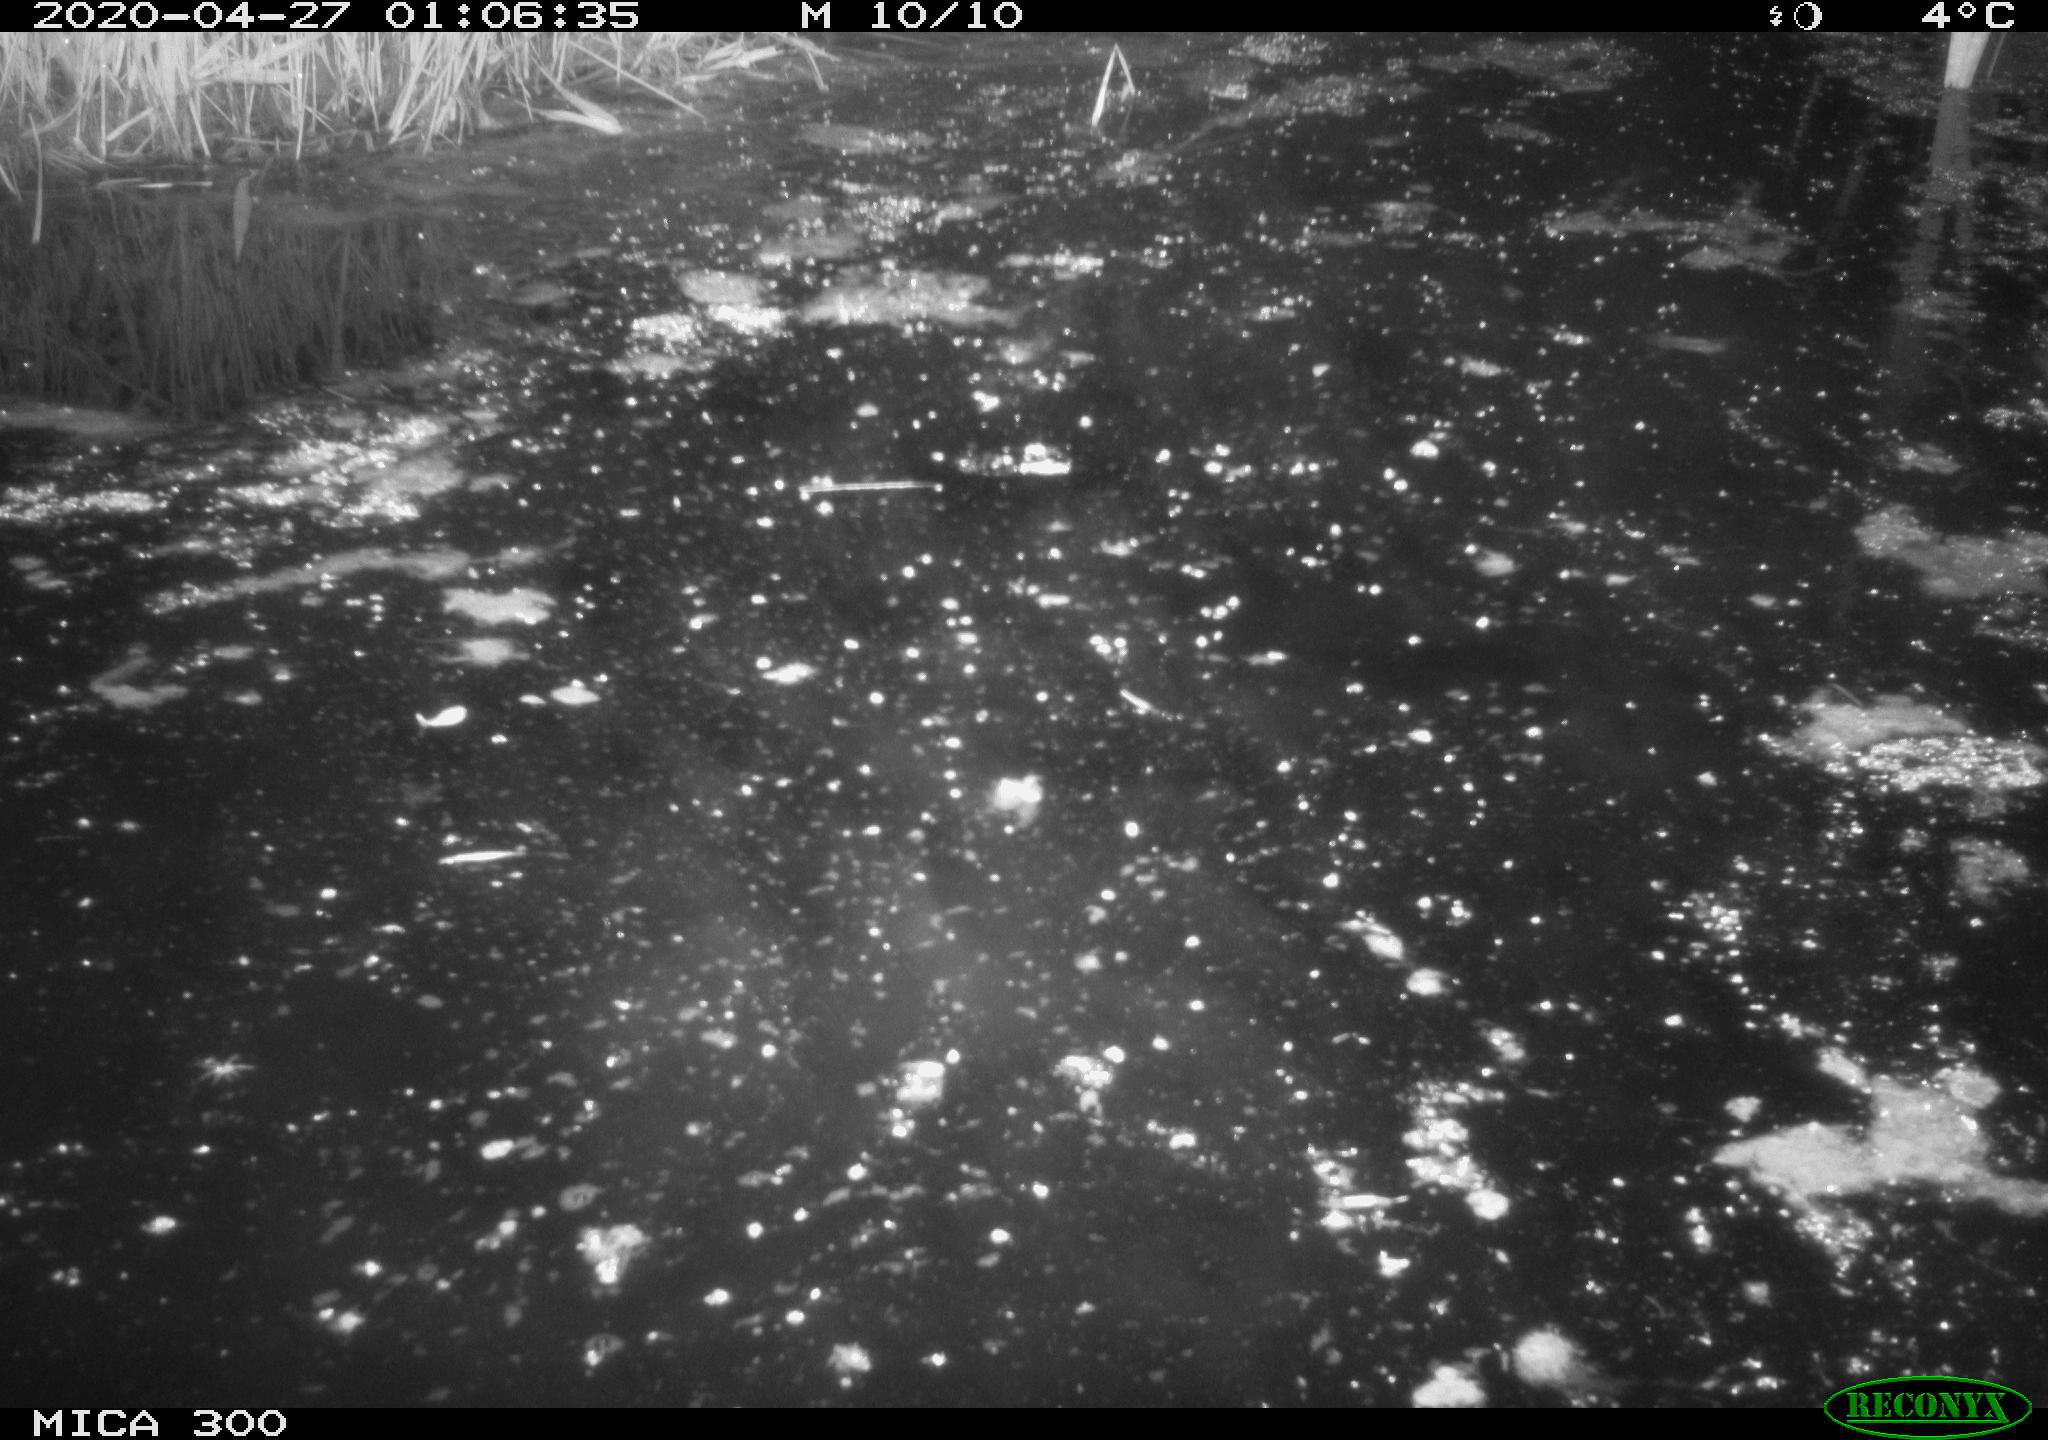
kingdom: Animalia
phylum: Chordata
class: Mammalia
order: Rodentia
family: Castoridae
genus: Castor
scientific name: Castor fiber
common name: Eurasian beaver
